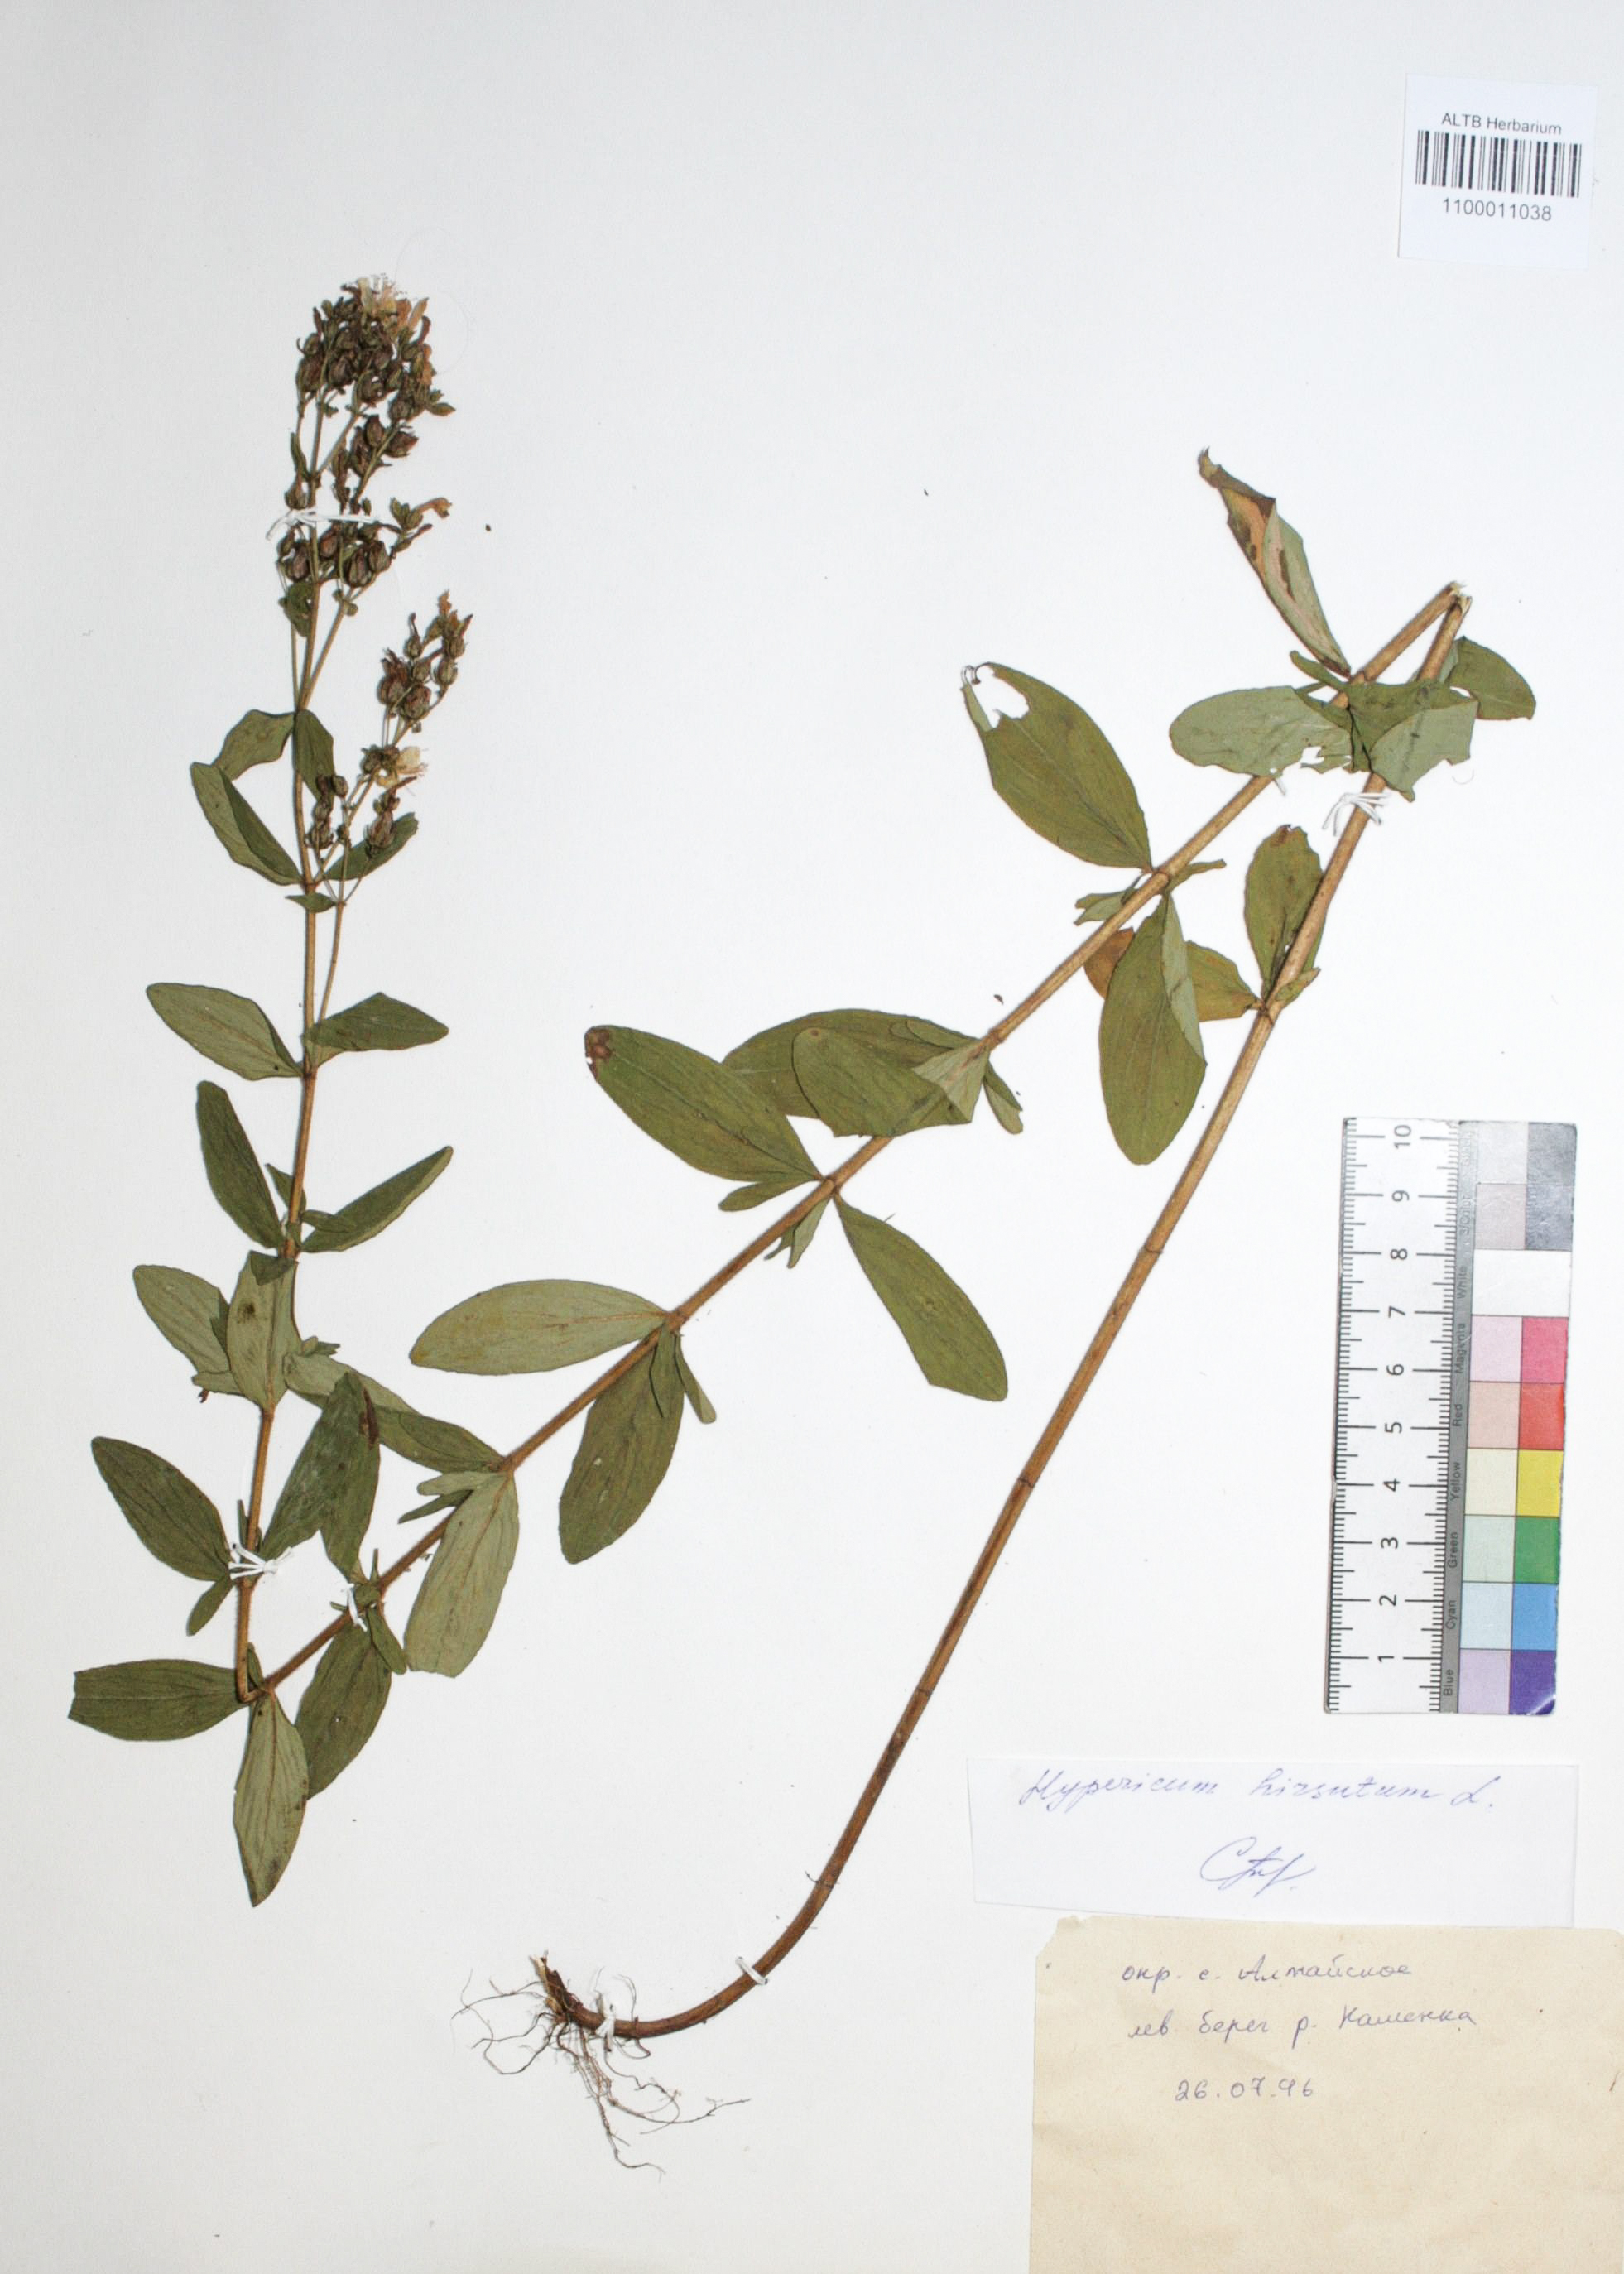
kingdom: Plantae
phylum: Tracheophyta
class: Magnoliopsida
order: Malpighiales
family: Hypericaceae
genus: Hypericum
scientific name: Hypericum hirsutum
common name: Hairy st. john's-wort
